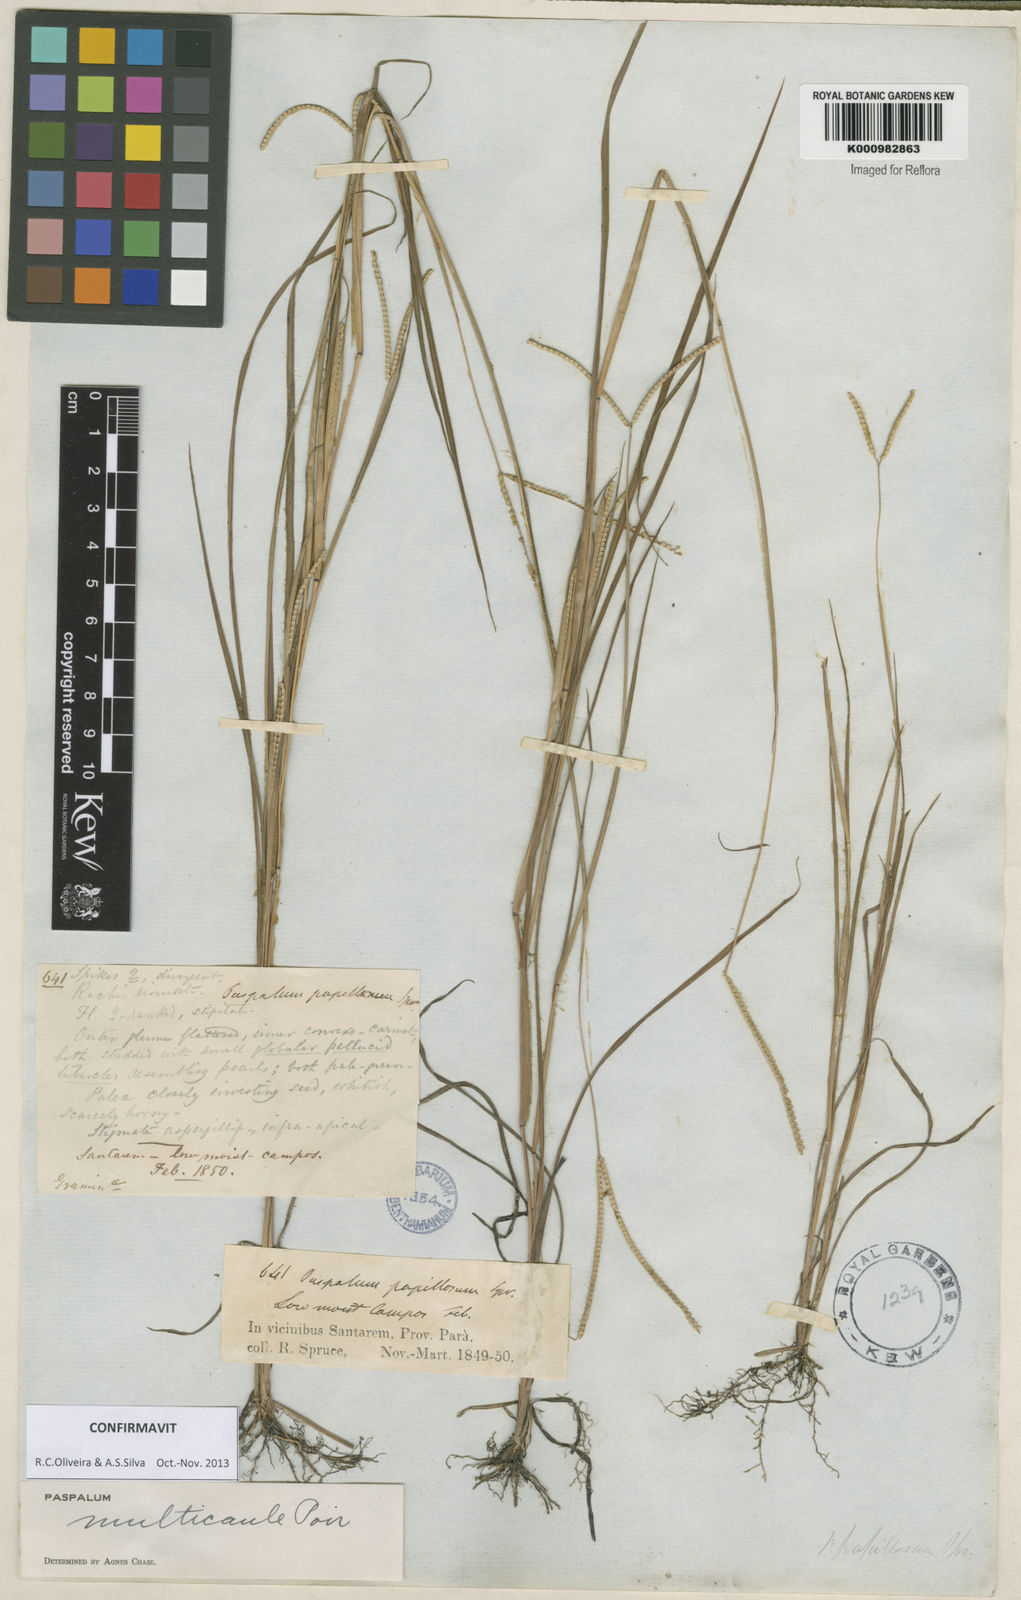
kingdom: Plantae
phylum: Tracheophyta
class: Liliopsida
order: Poales
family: Poaceae
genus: Paspalum
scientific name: Paspalum multicaule
